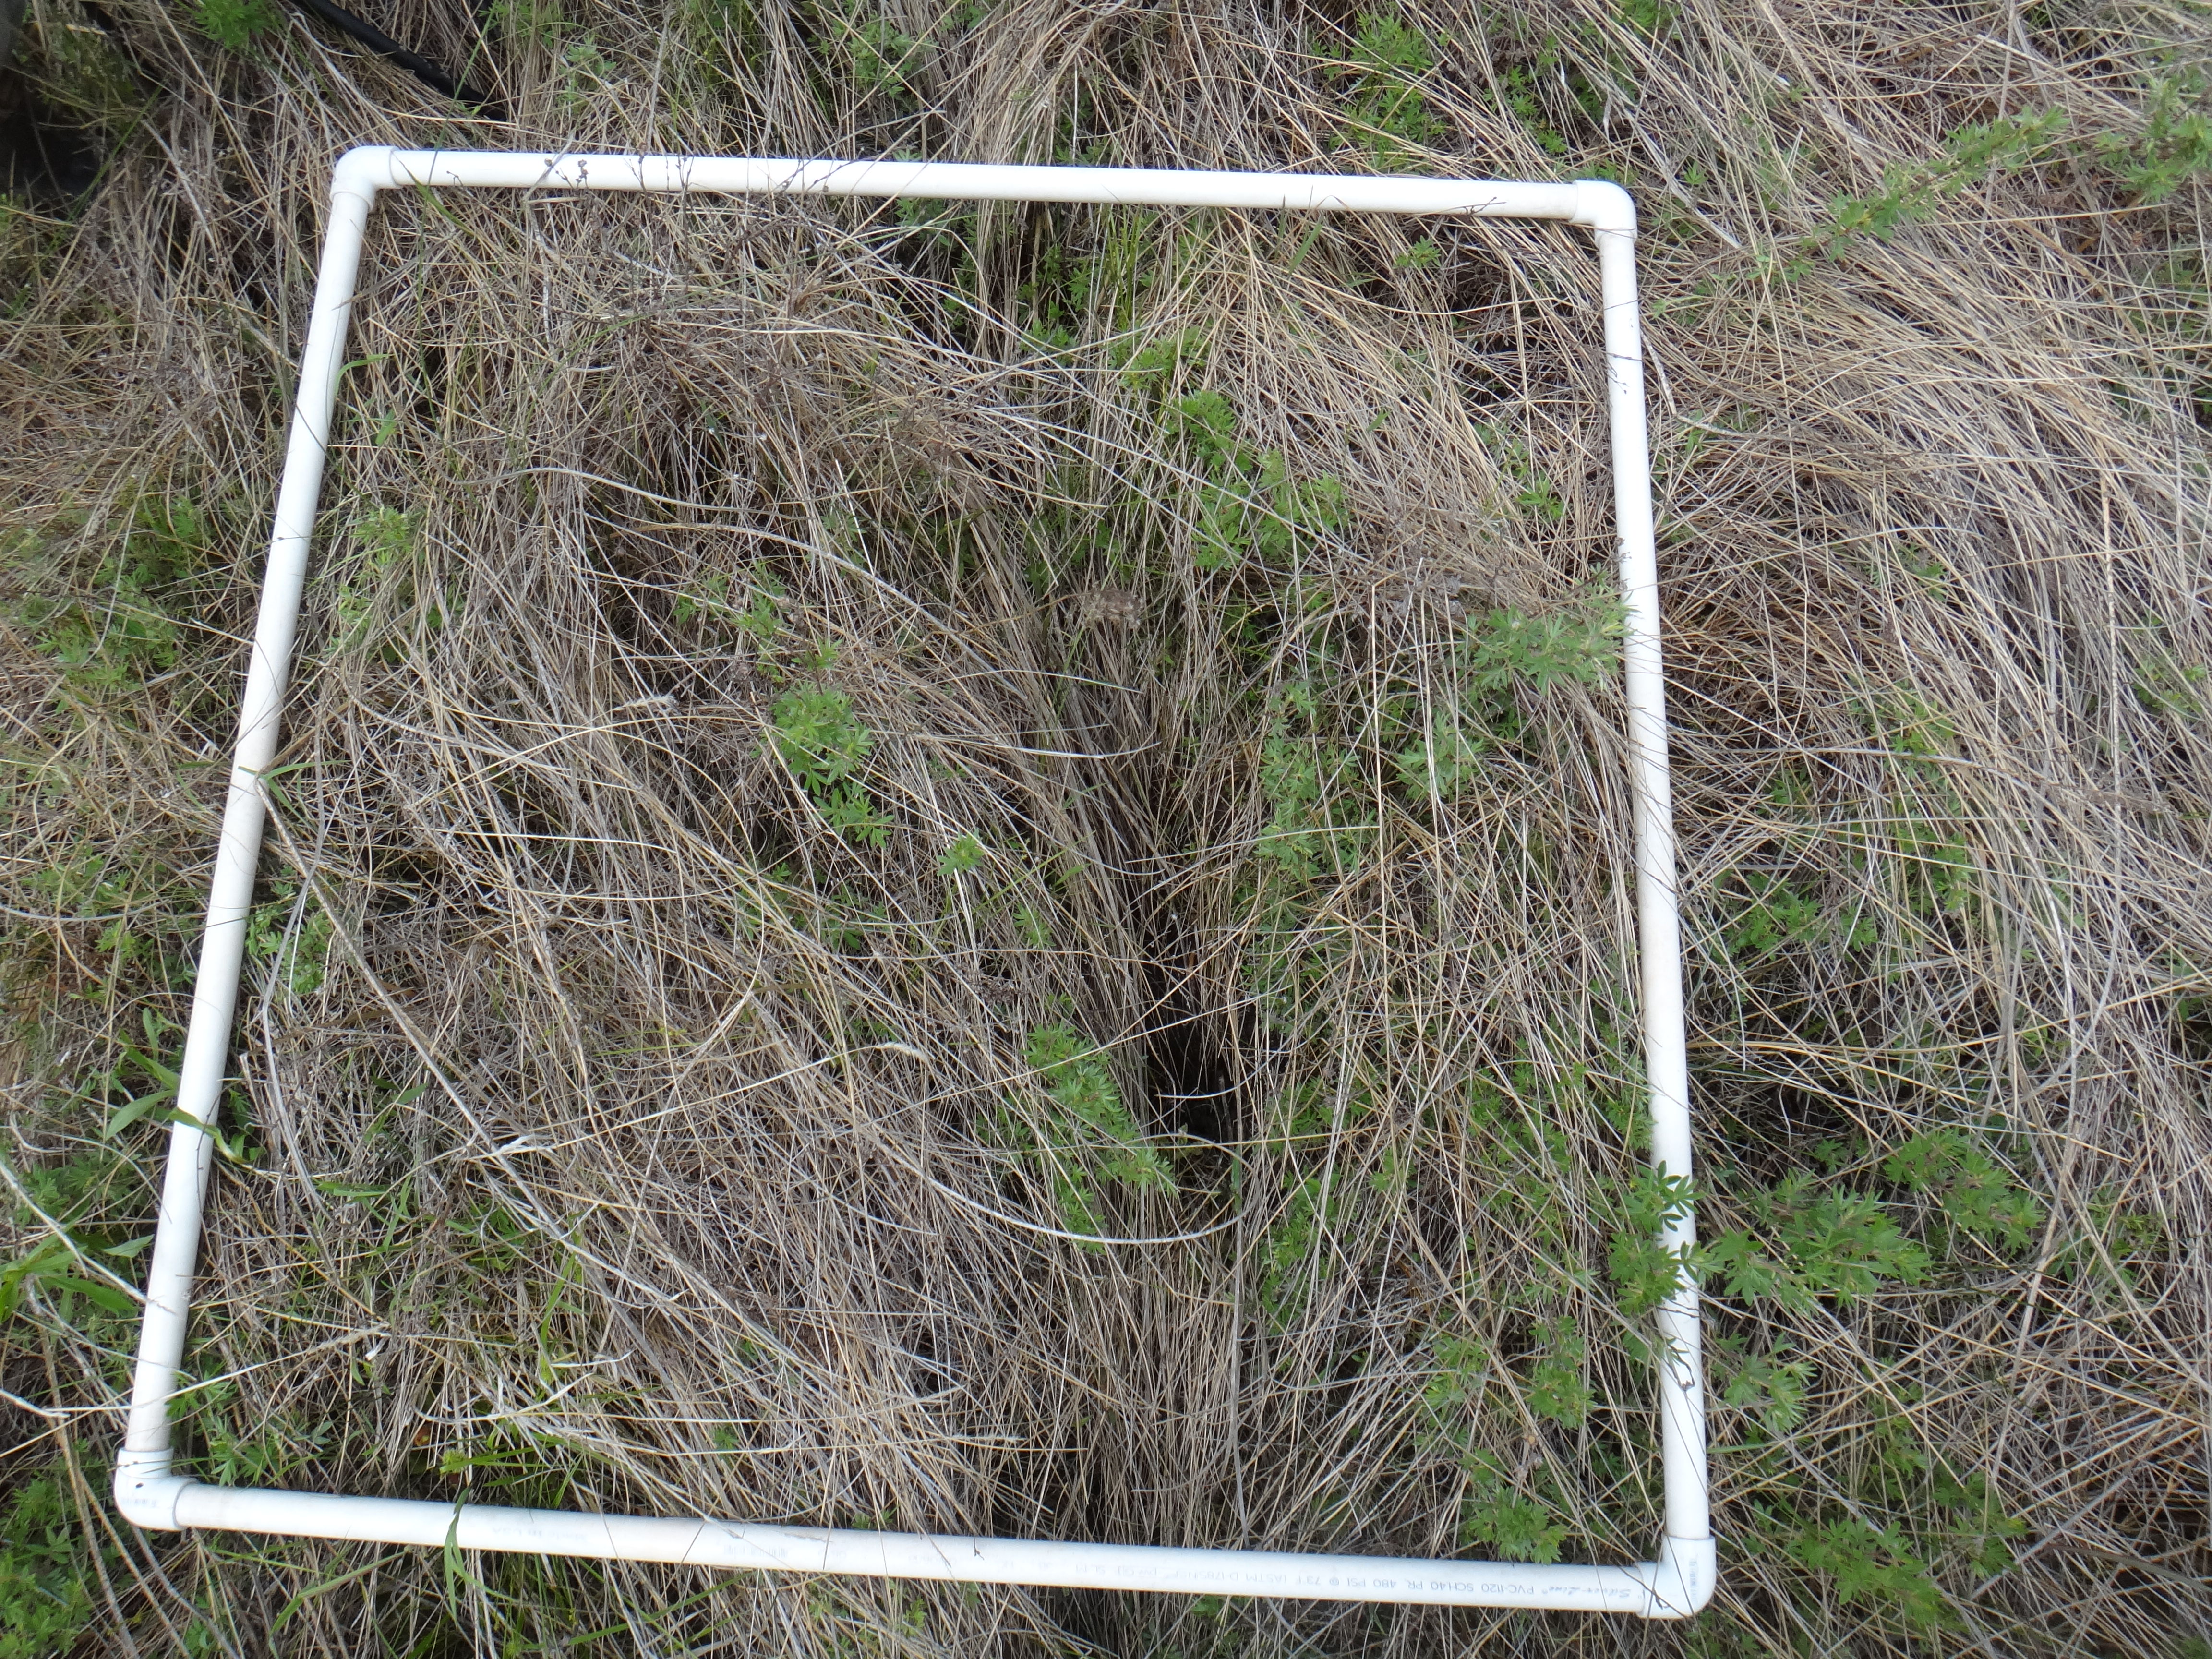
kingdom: Plantae
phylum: Tracheophyta
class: Liliopsida
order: Poales
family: Poaceae
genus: Muhlenbergia
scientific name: Muhlenbergia glomerata
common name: Bog muhly
